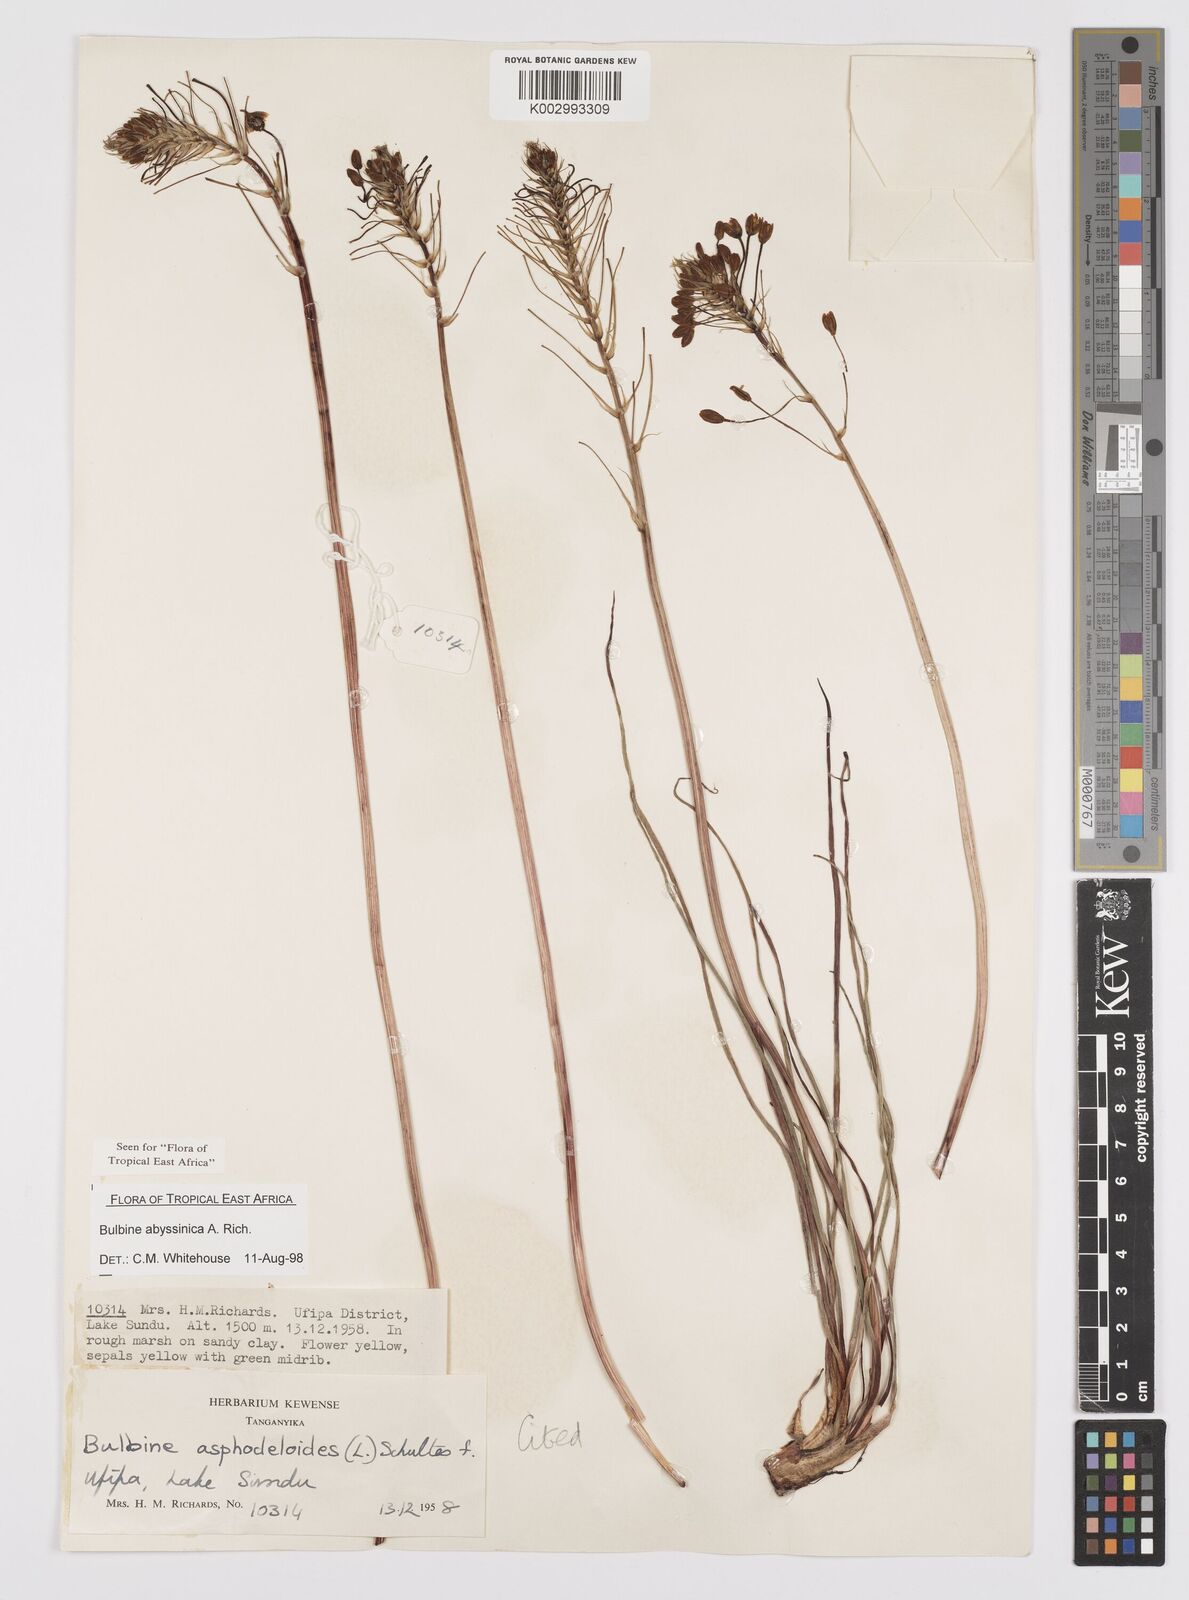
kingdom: Plantae
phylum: Tracheophyta
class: Liliopsida
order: Asparagales
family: Asphodelaceae
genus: Bulbine
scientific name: Bulbine abyssinica
